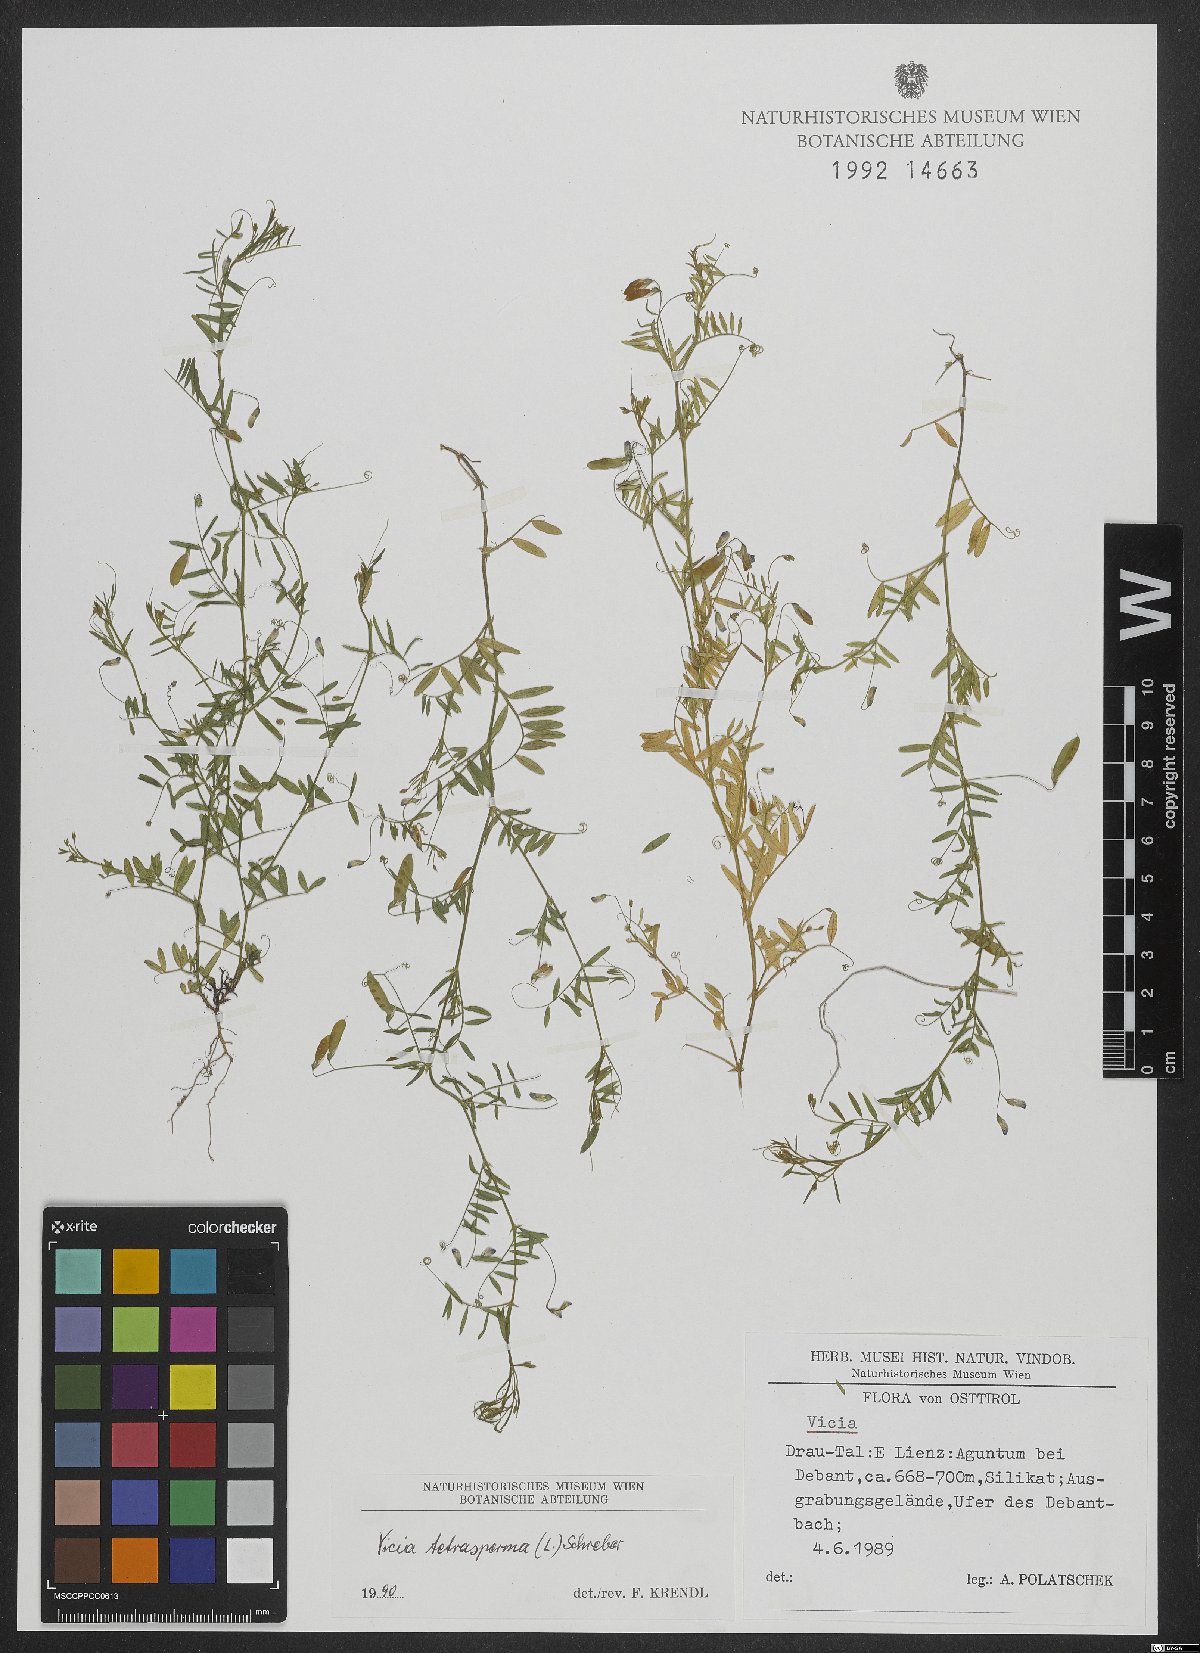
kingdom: Plantae
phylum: Tracheophyta
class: Magnoliopsida
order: Fabales
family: Fabaceae
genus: Vicia
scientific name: Vicia tetrasperma
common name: Smooth tare
